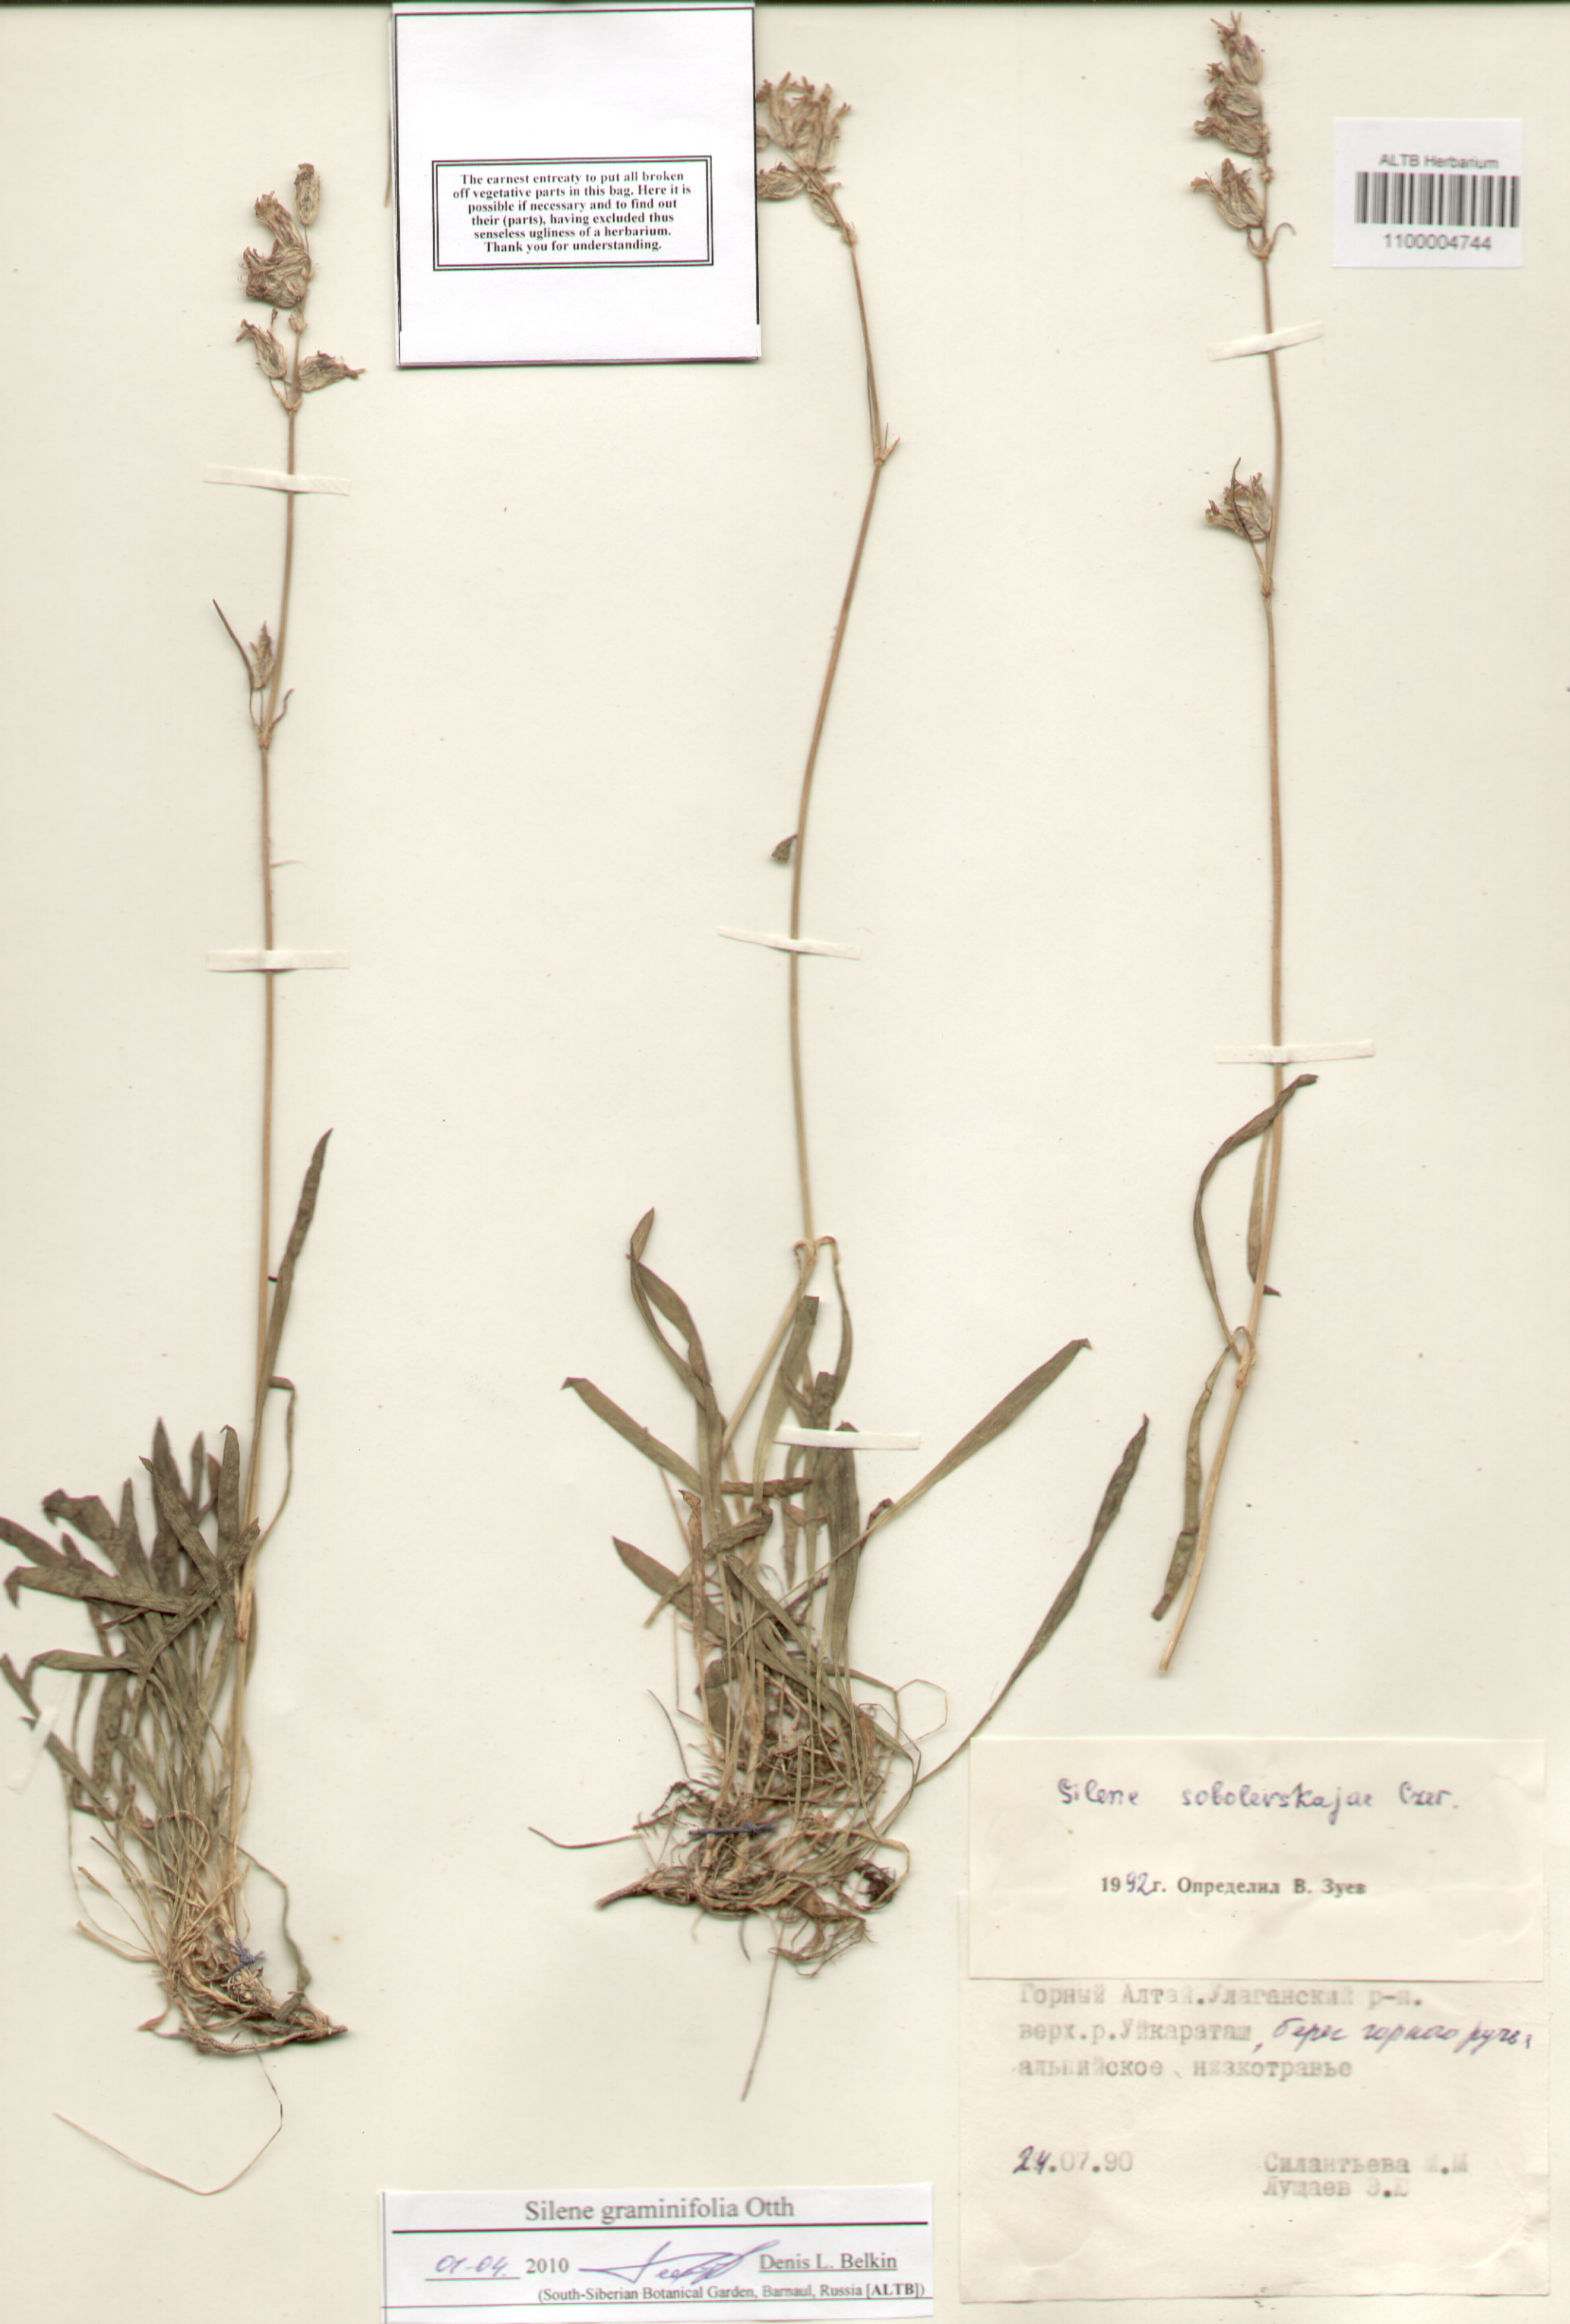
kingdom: Plantae
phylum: Tracheophyta
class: Magnoliopsida
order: Caryophyllales
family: Caryophyllaceae
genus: Silene
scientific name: Silene graminifolia
